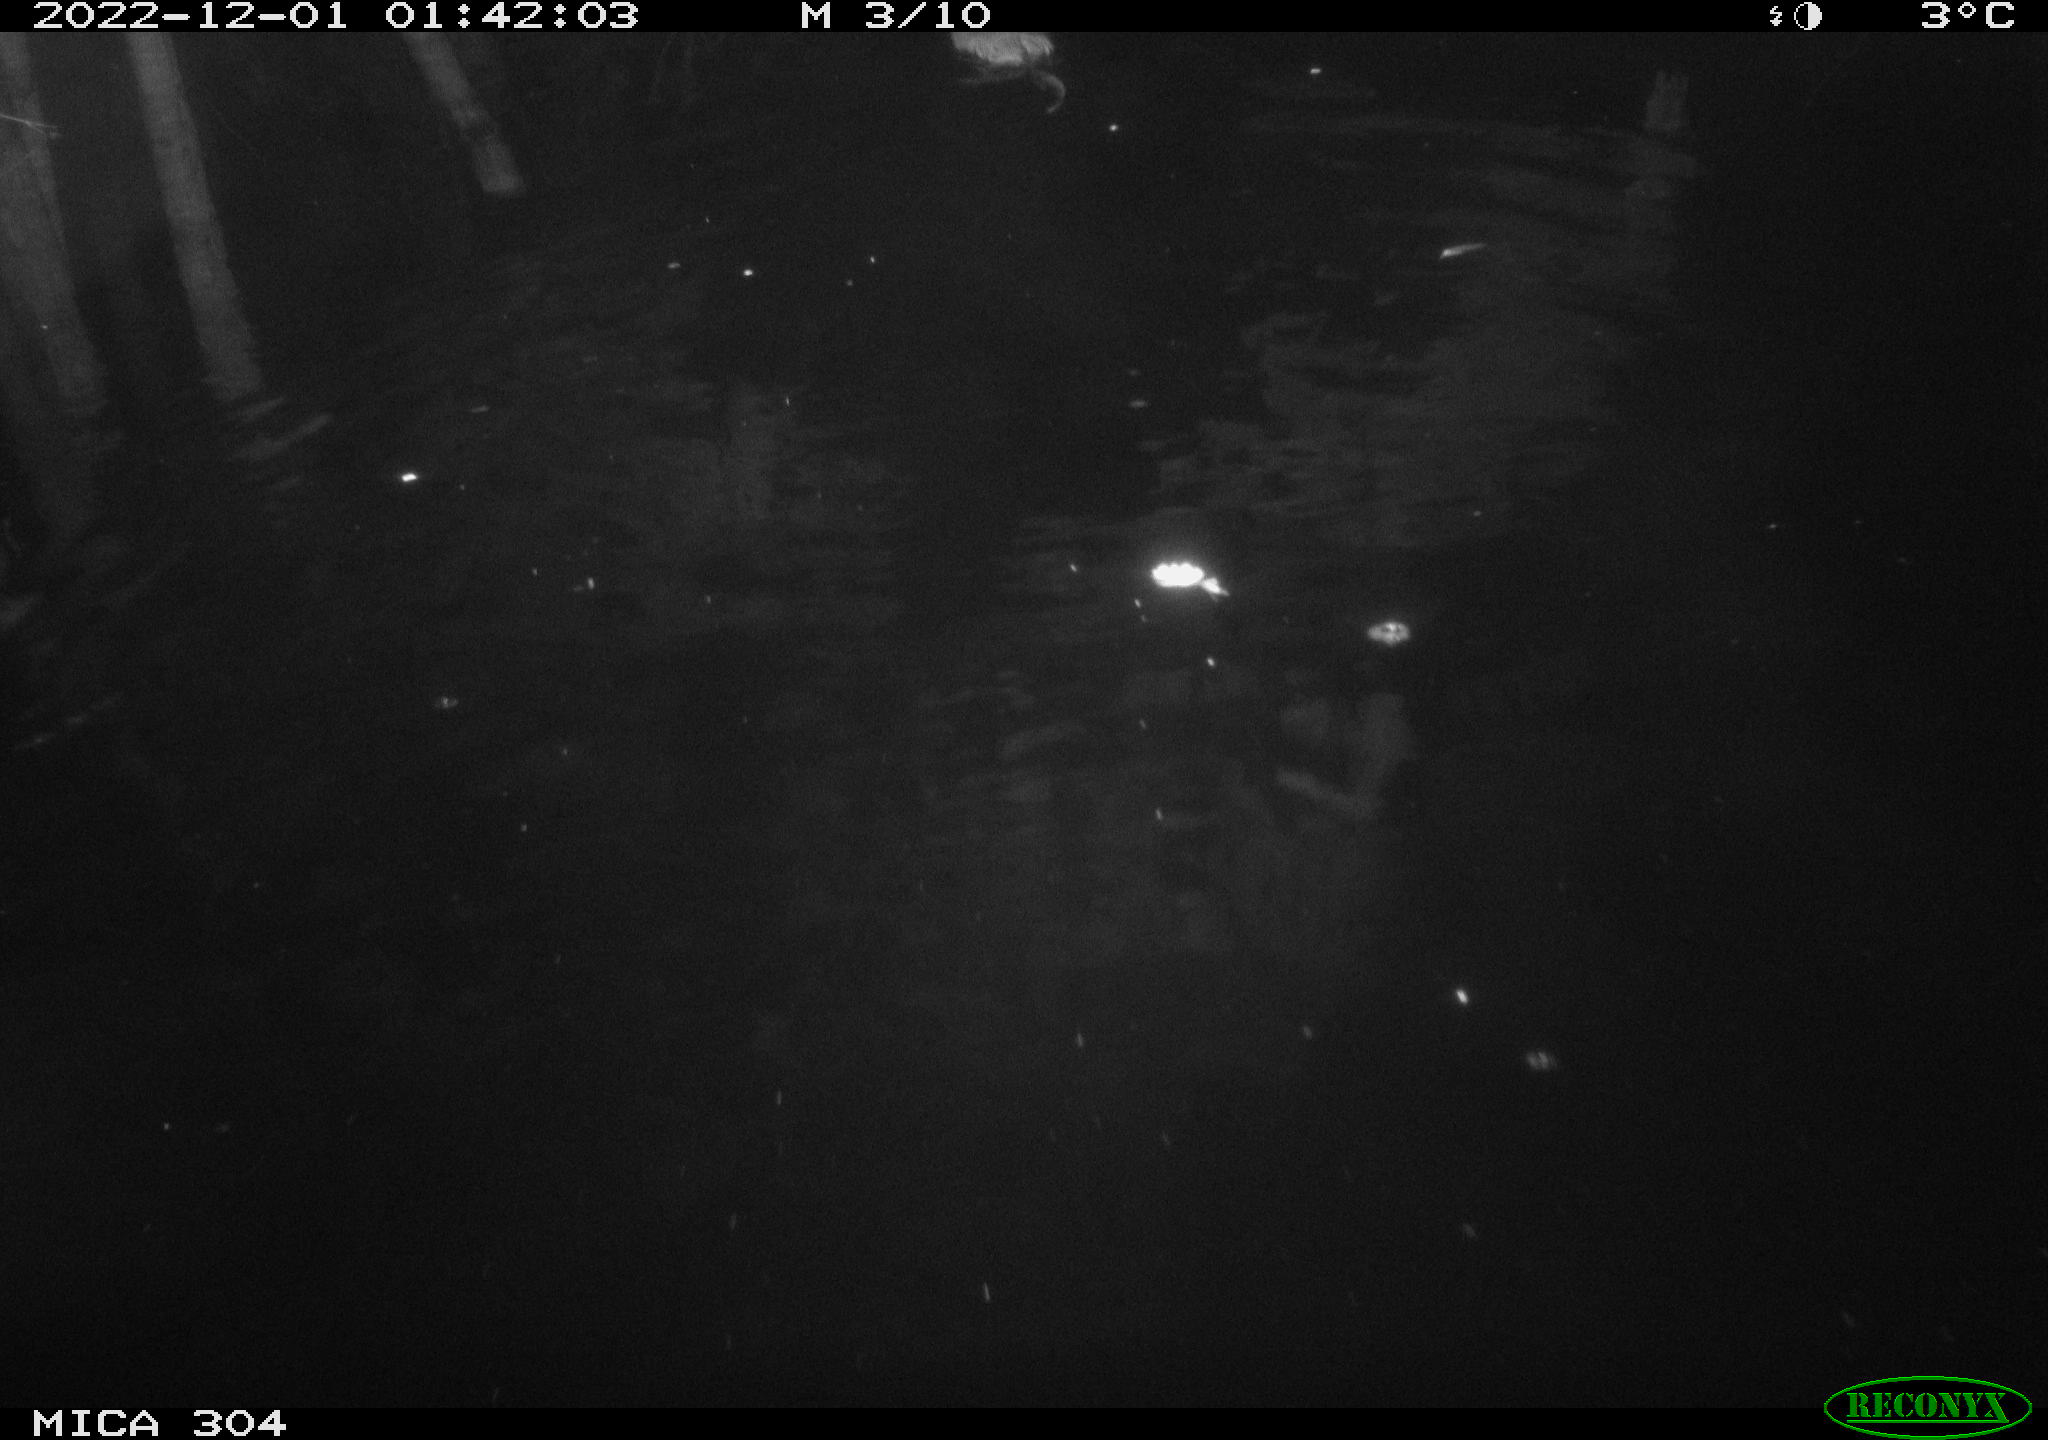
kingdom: Animalia
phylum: Chordata
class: Mammalia
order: Rodentia
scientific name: Rodentia
